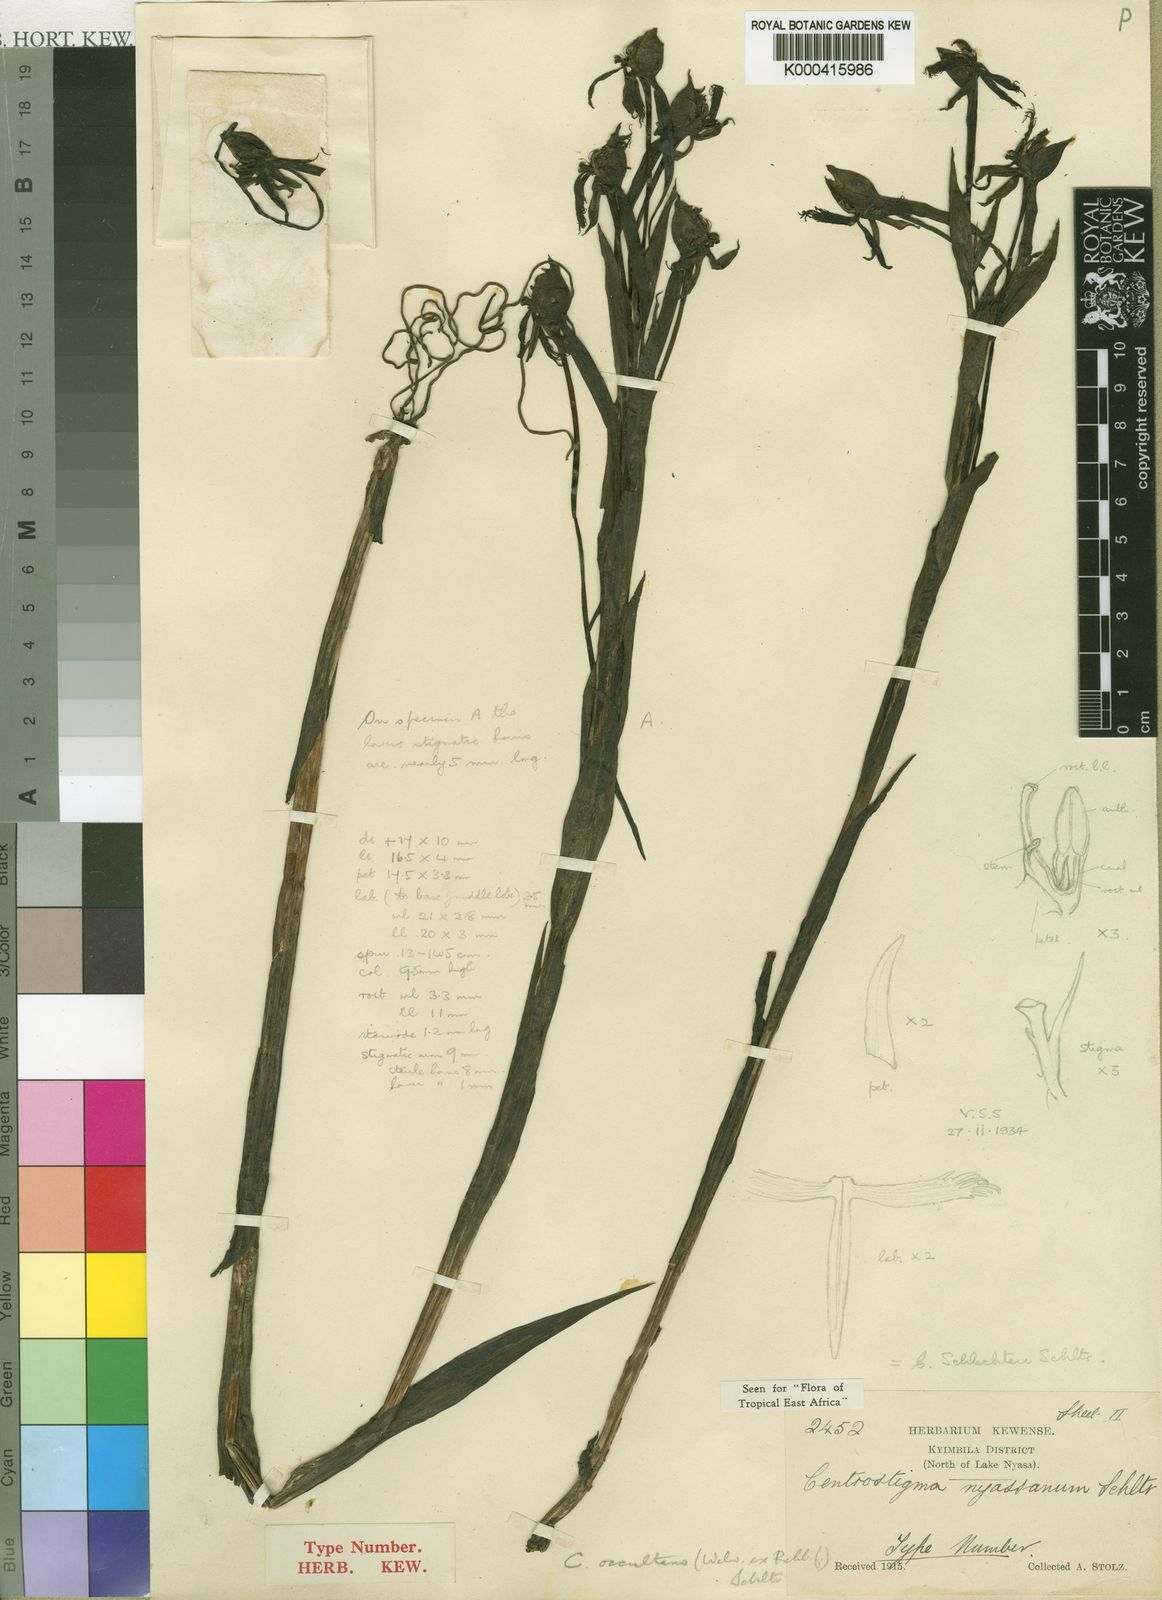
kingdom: Plantae
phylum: Tracheophyta
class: Liliopsida
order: Asparagales
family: Orchidaceae
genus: Centrostigma
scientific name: Centrostigma occultans
